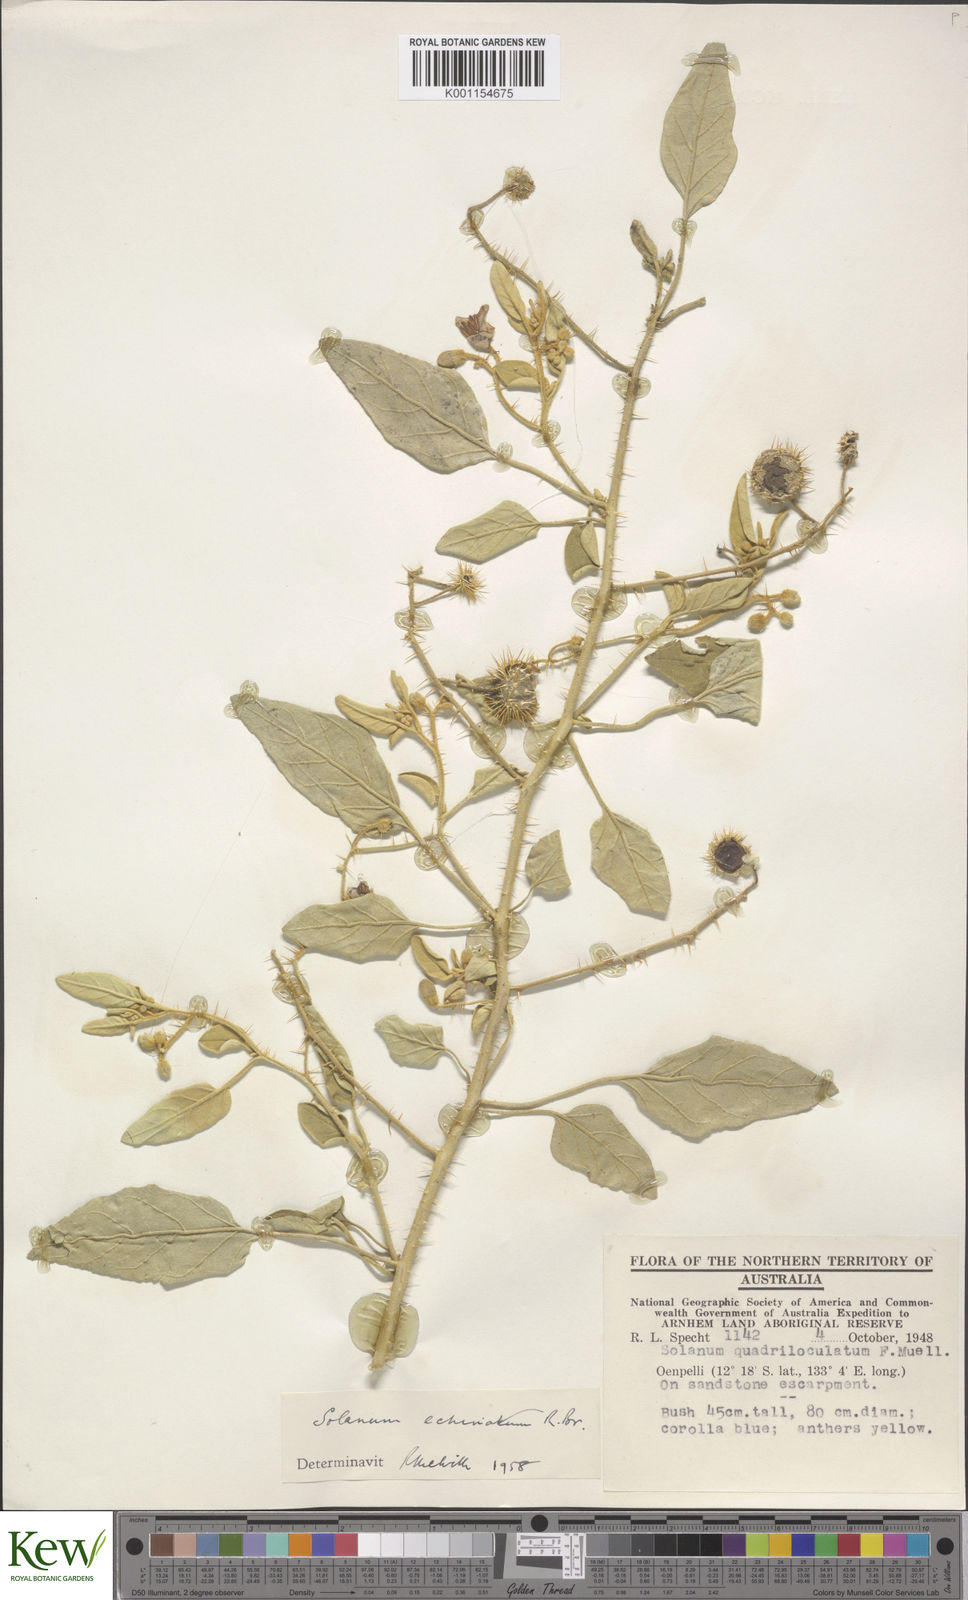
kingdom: Plantae
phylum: Tracheophyta
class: Magnoliopsida
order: Solanales
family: Solanaceae
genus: Solanum
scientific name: Solanum echinatum
